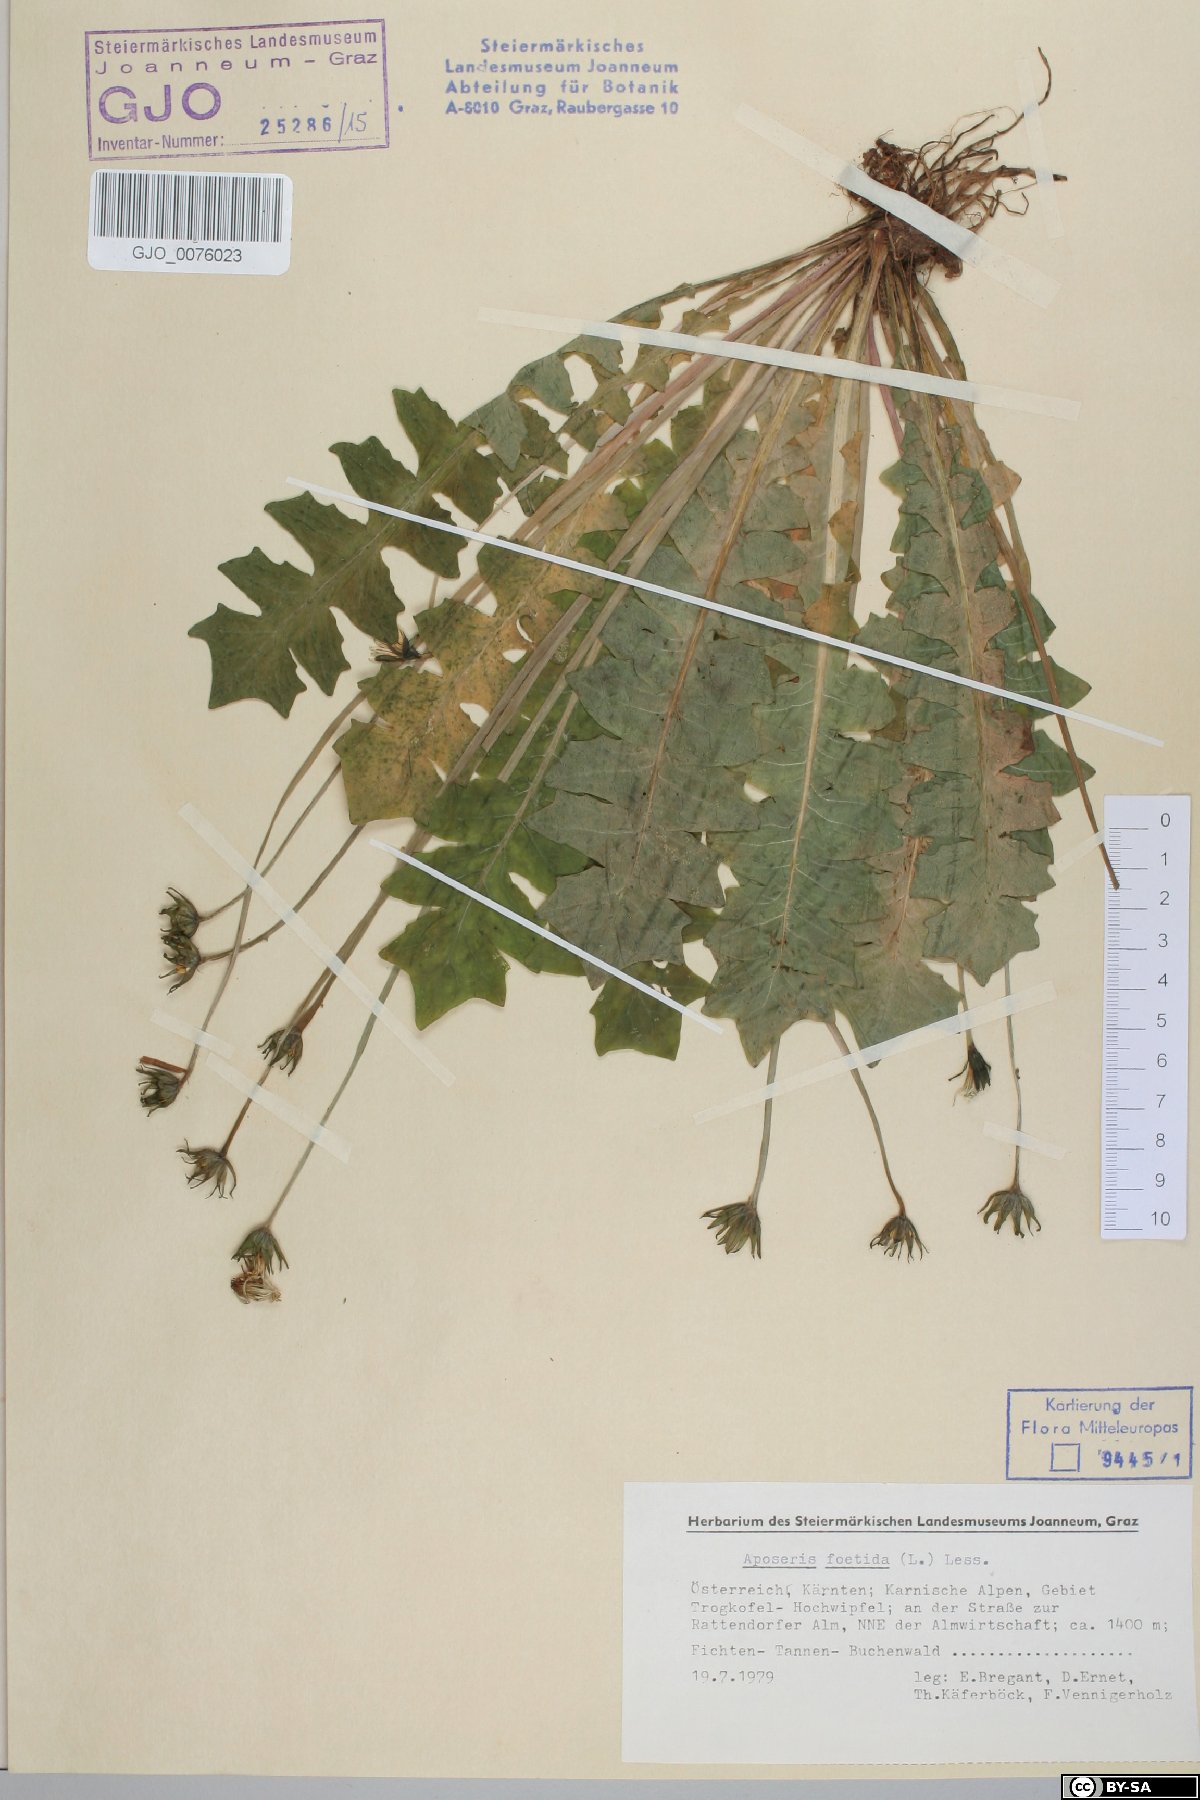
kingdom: Plantae
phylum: Tracheophyta
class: Magnoliopsida
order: Asterales
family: Asteraceae
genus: Aposeris
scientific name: Aposeris foetida
